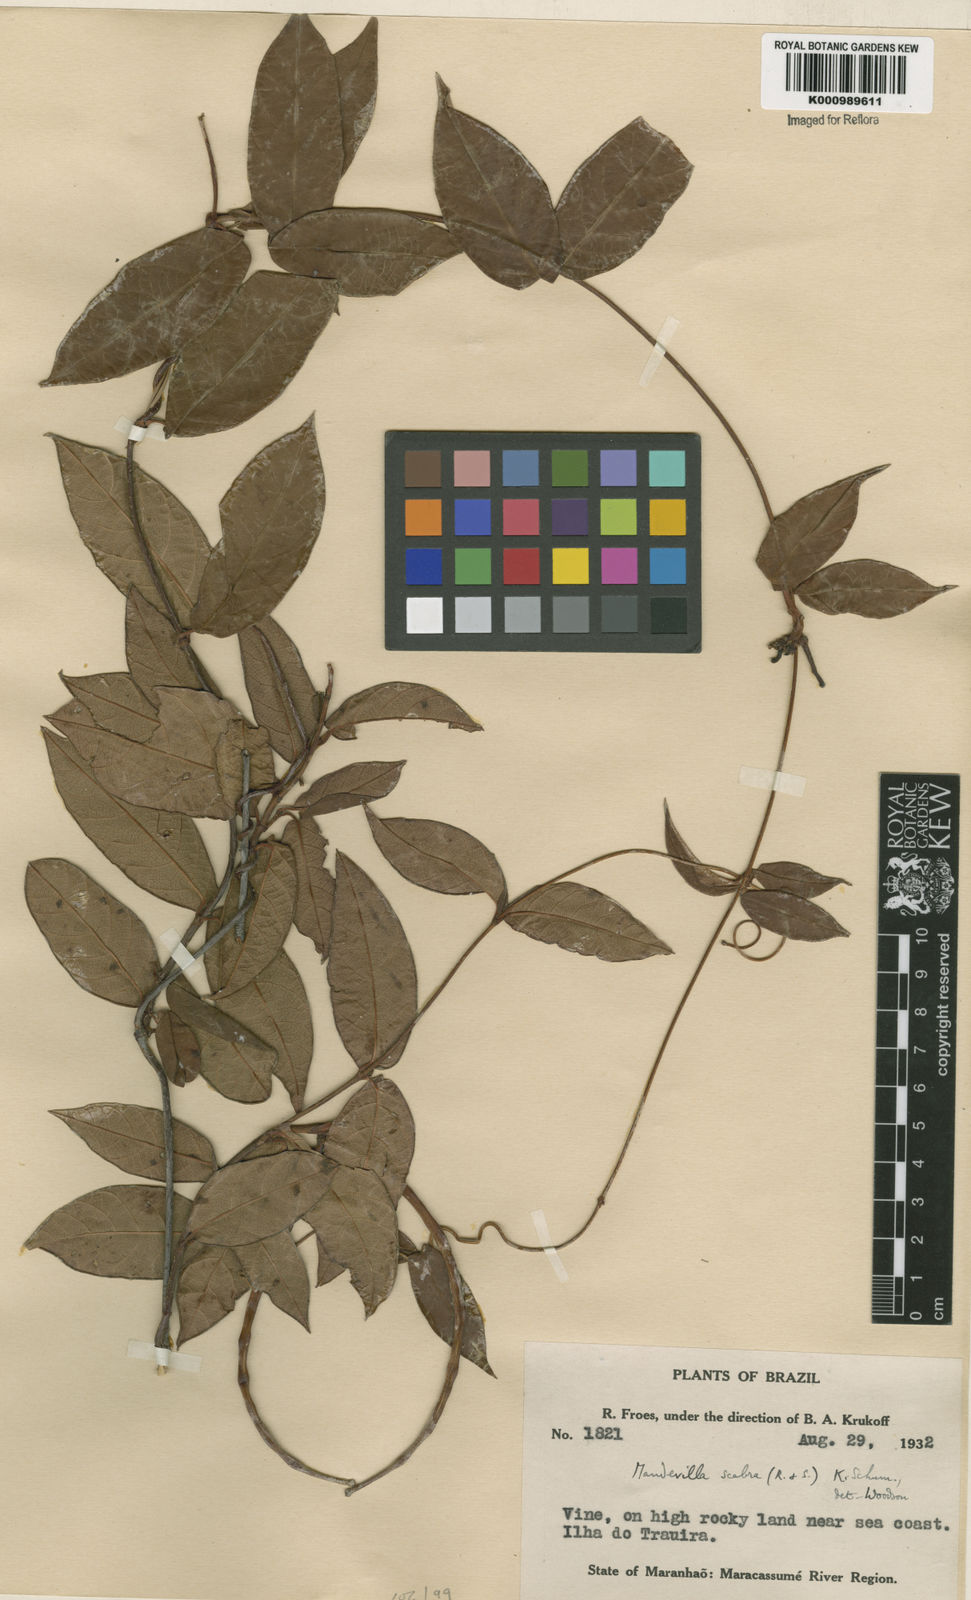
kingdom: Plantae
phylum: Tracheophyta
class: Magnoliopsida
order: Gentianales
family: Apocynaceae
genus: Mandevilla
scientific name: Mandevilla scabra
